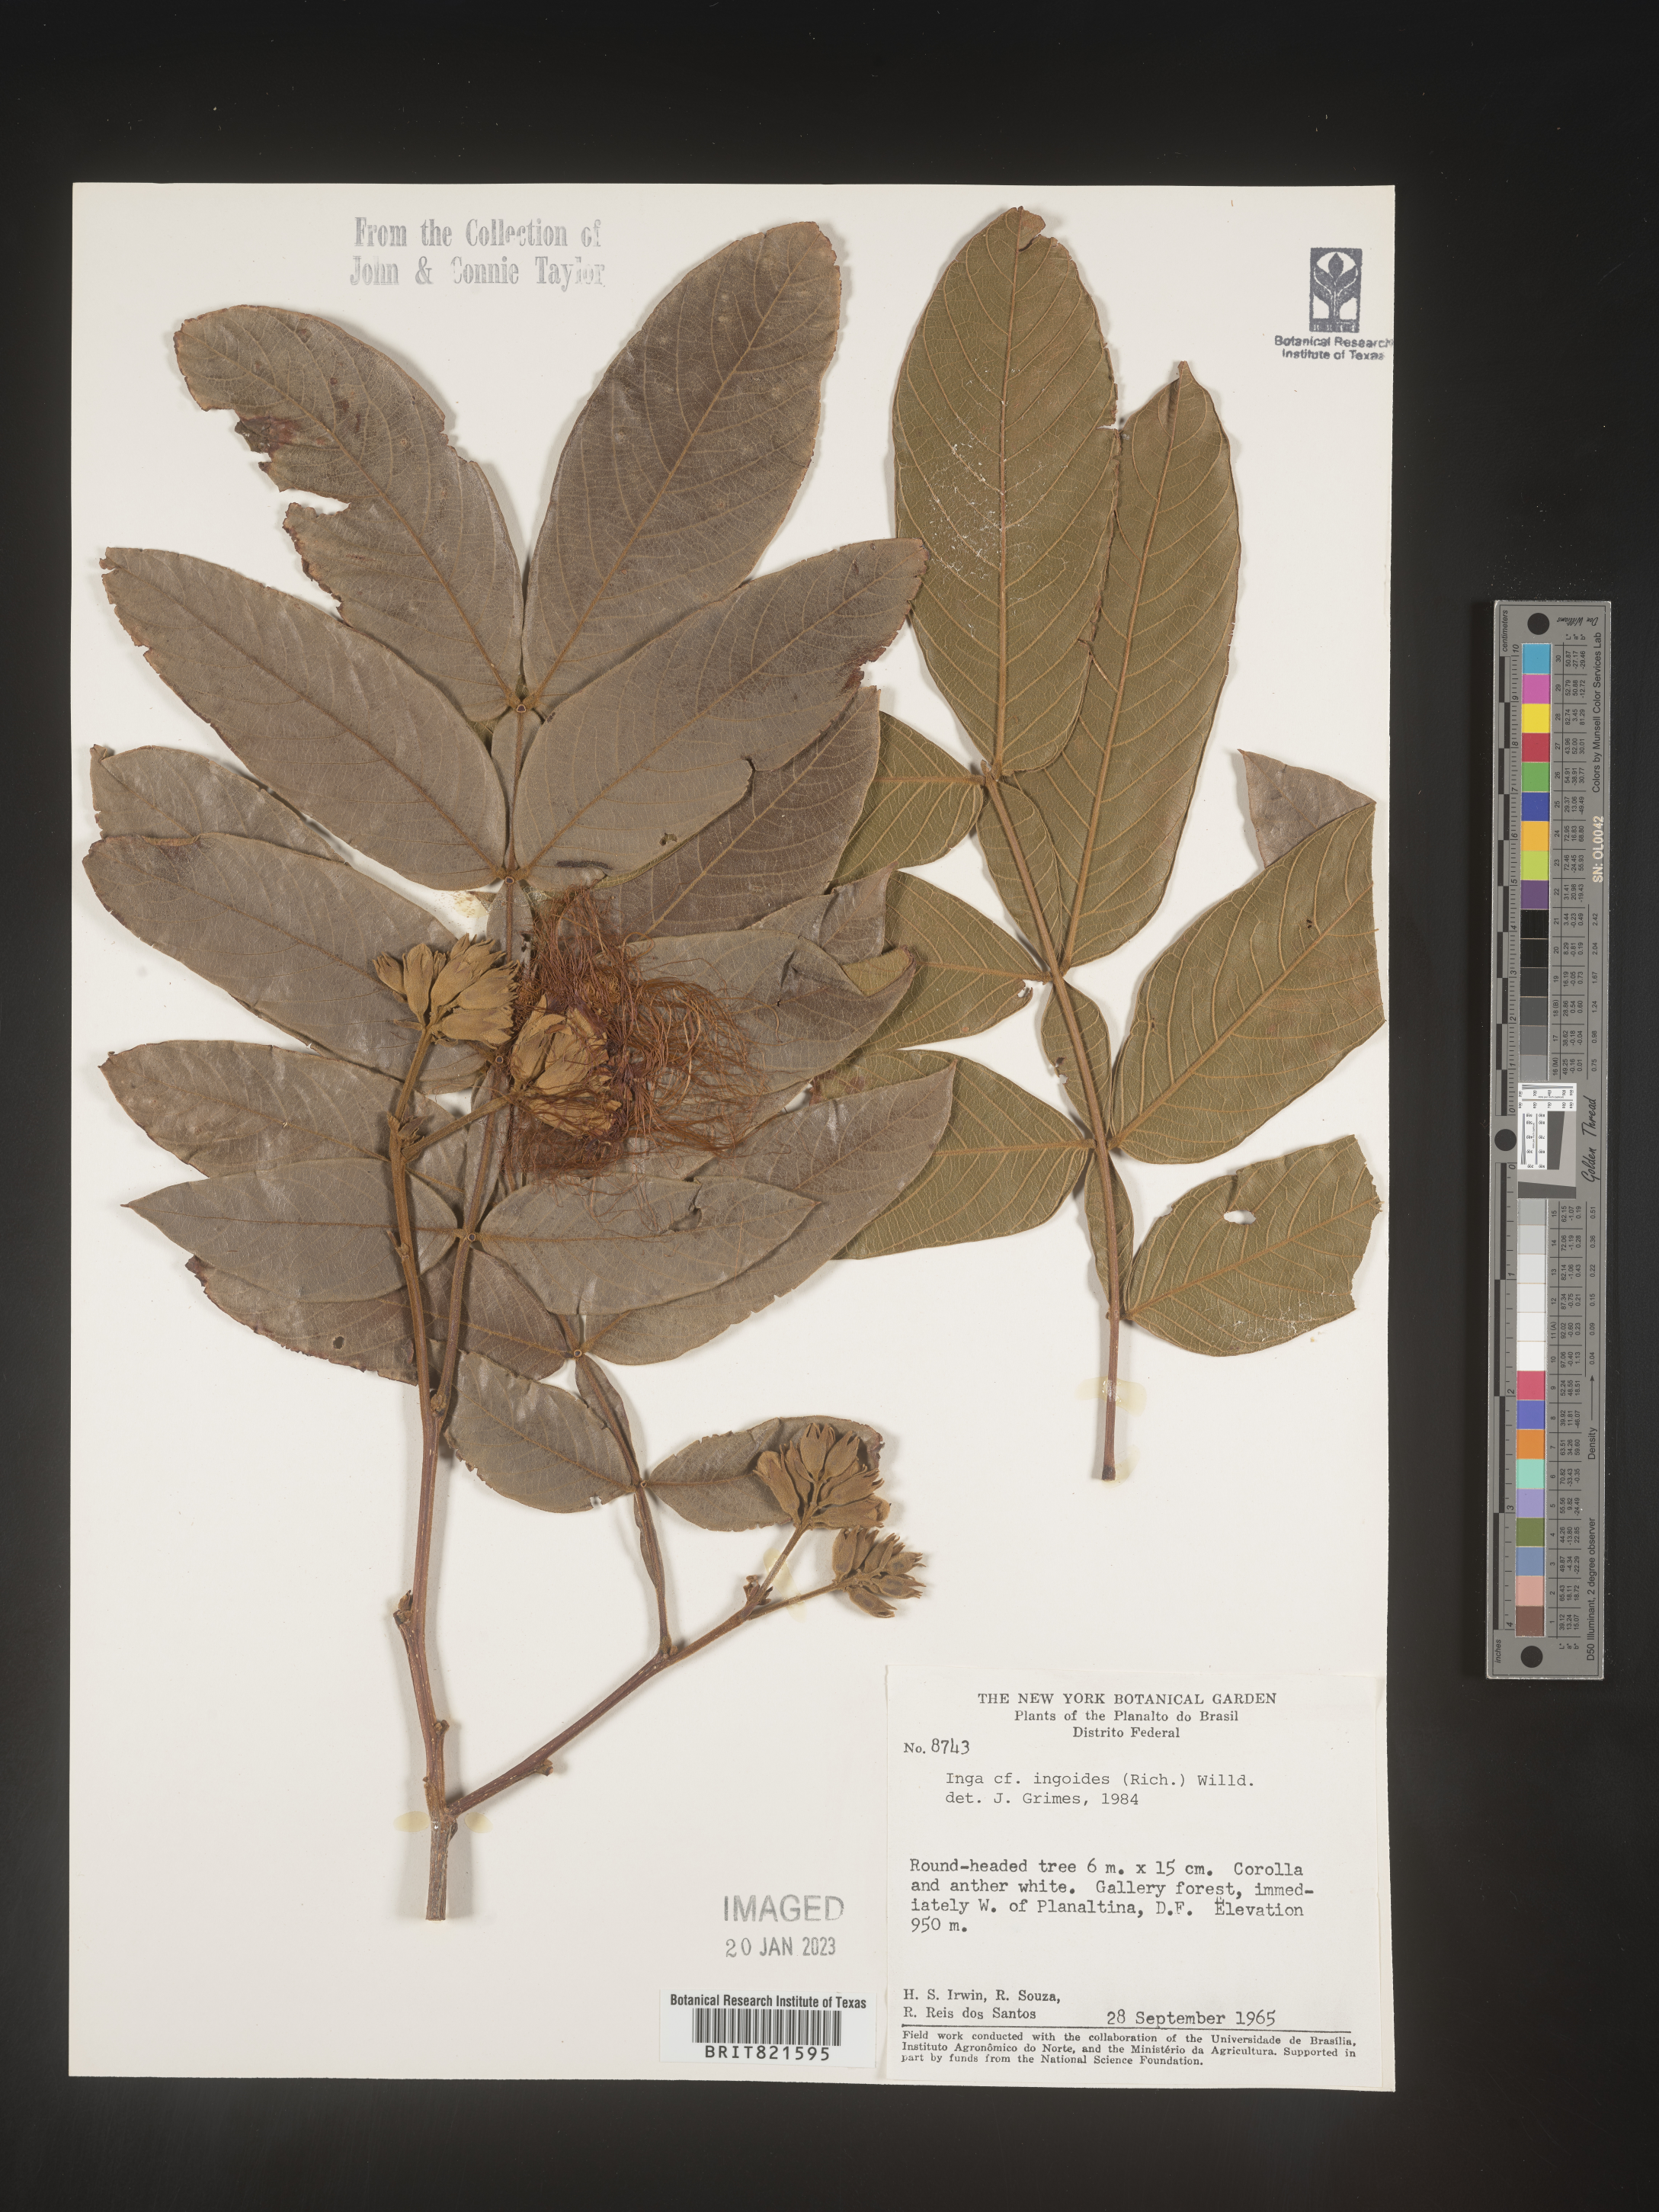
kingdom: Plantae
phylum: Tracheophyta
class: Magnoliopsida
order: Fabales
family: Fabaceae
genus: Inga
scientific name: Inga
